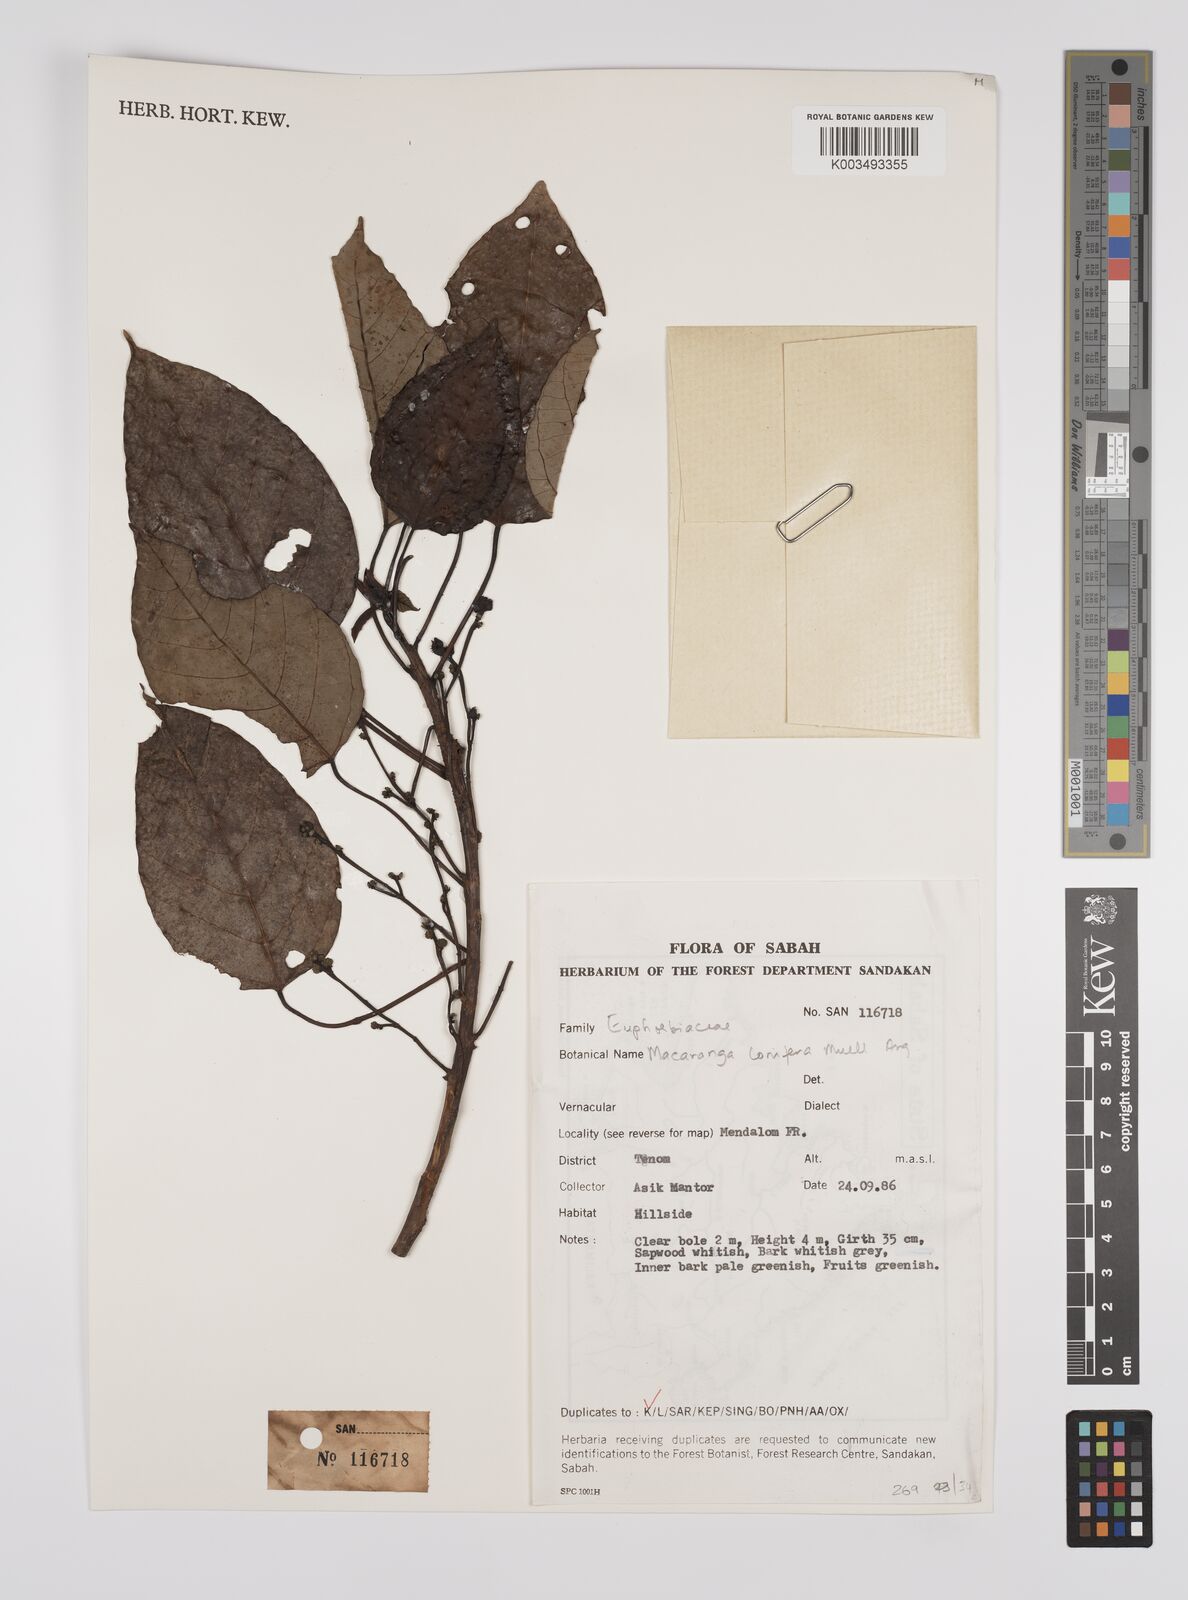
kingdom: Plantae
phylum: Tracheophyta
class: Magnoliopsida
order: Malpighiales
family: Euphorbiaceae
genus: Macaranga
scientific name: Macaranga conifera
